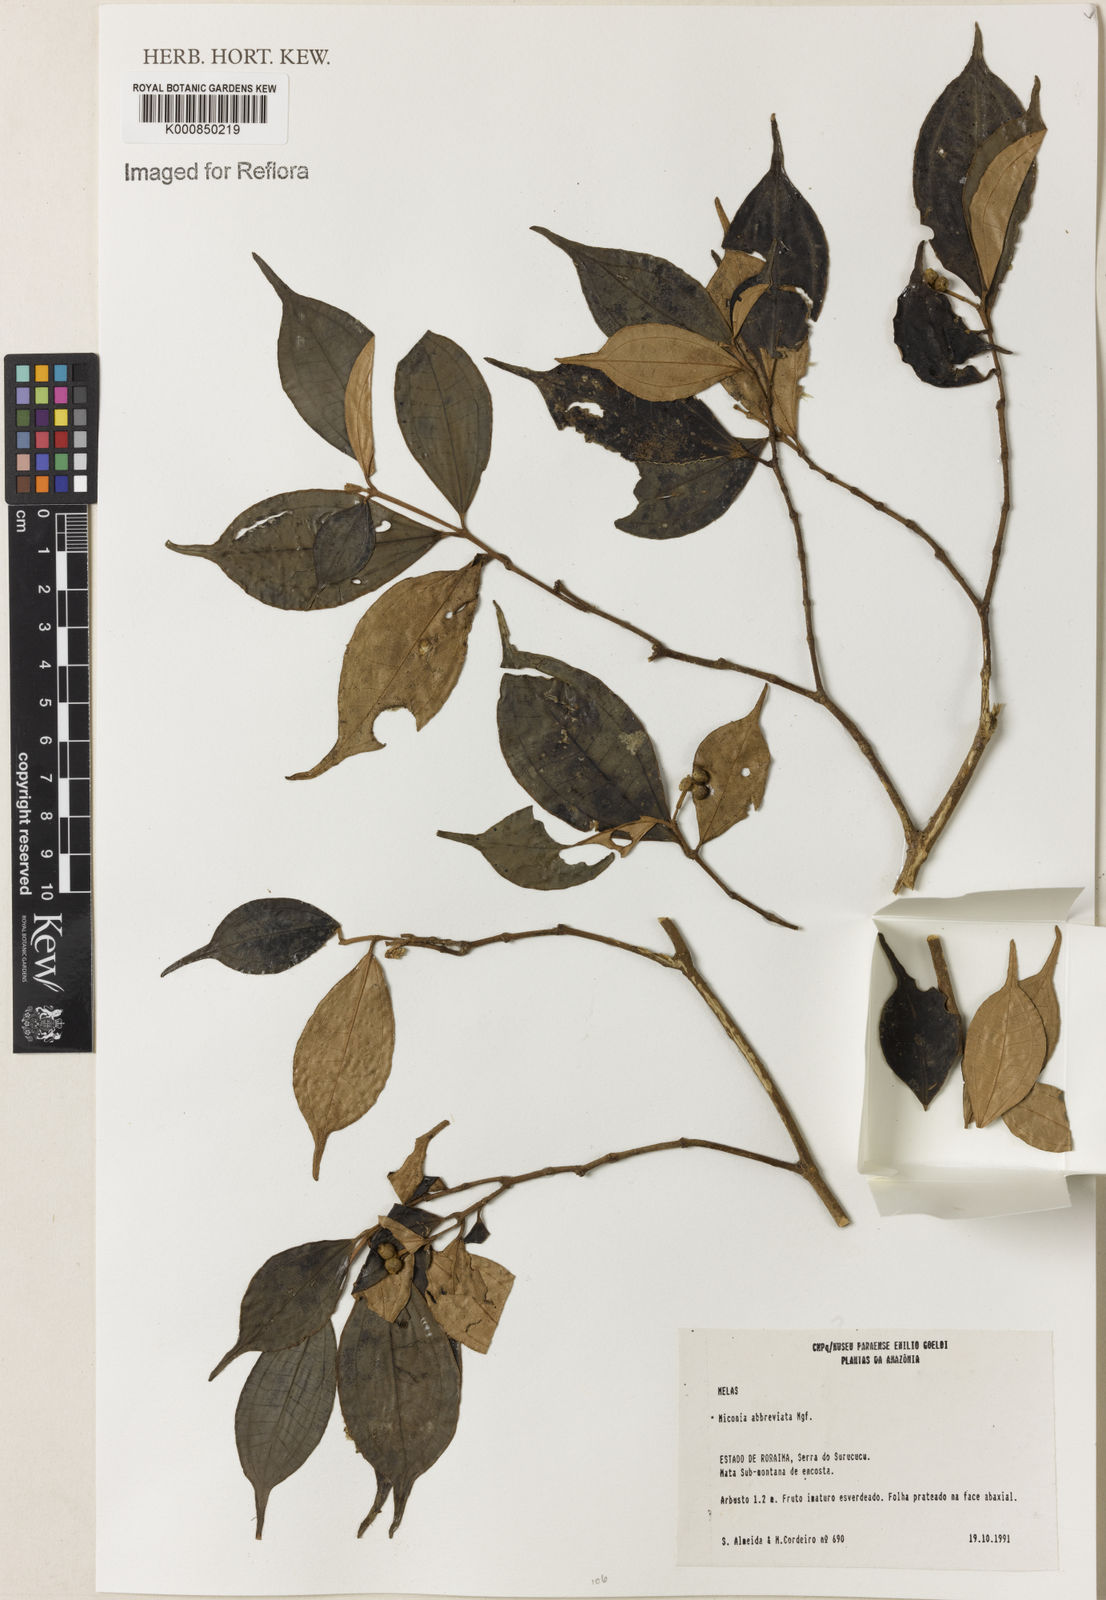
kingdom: Plantae
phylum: Tracheophyta
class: Magnoliopsida
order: Myrtales
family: Melastomataceae
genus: Miconia
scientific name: Miconia abbreviata
